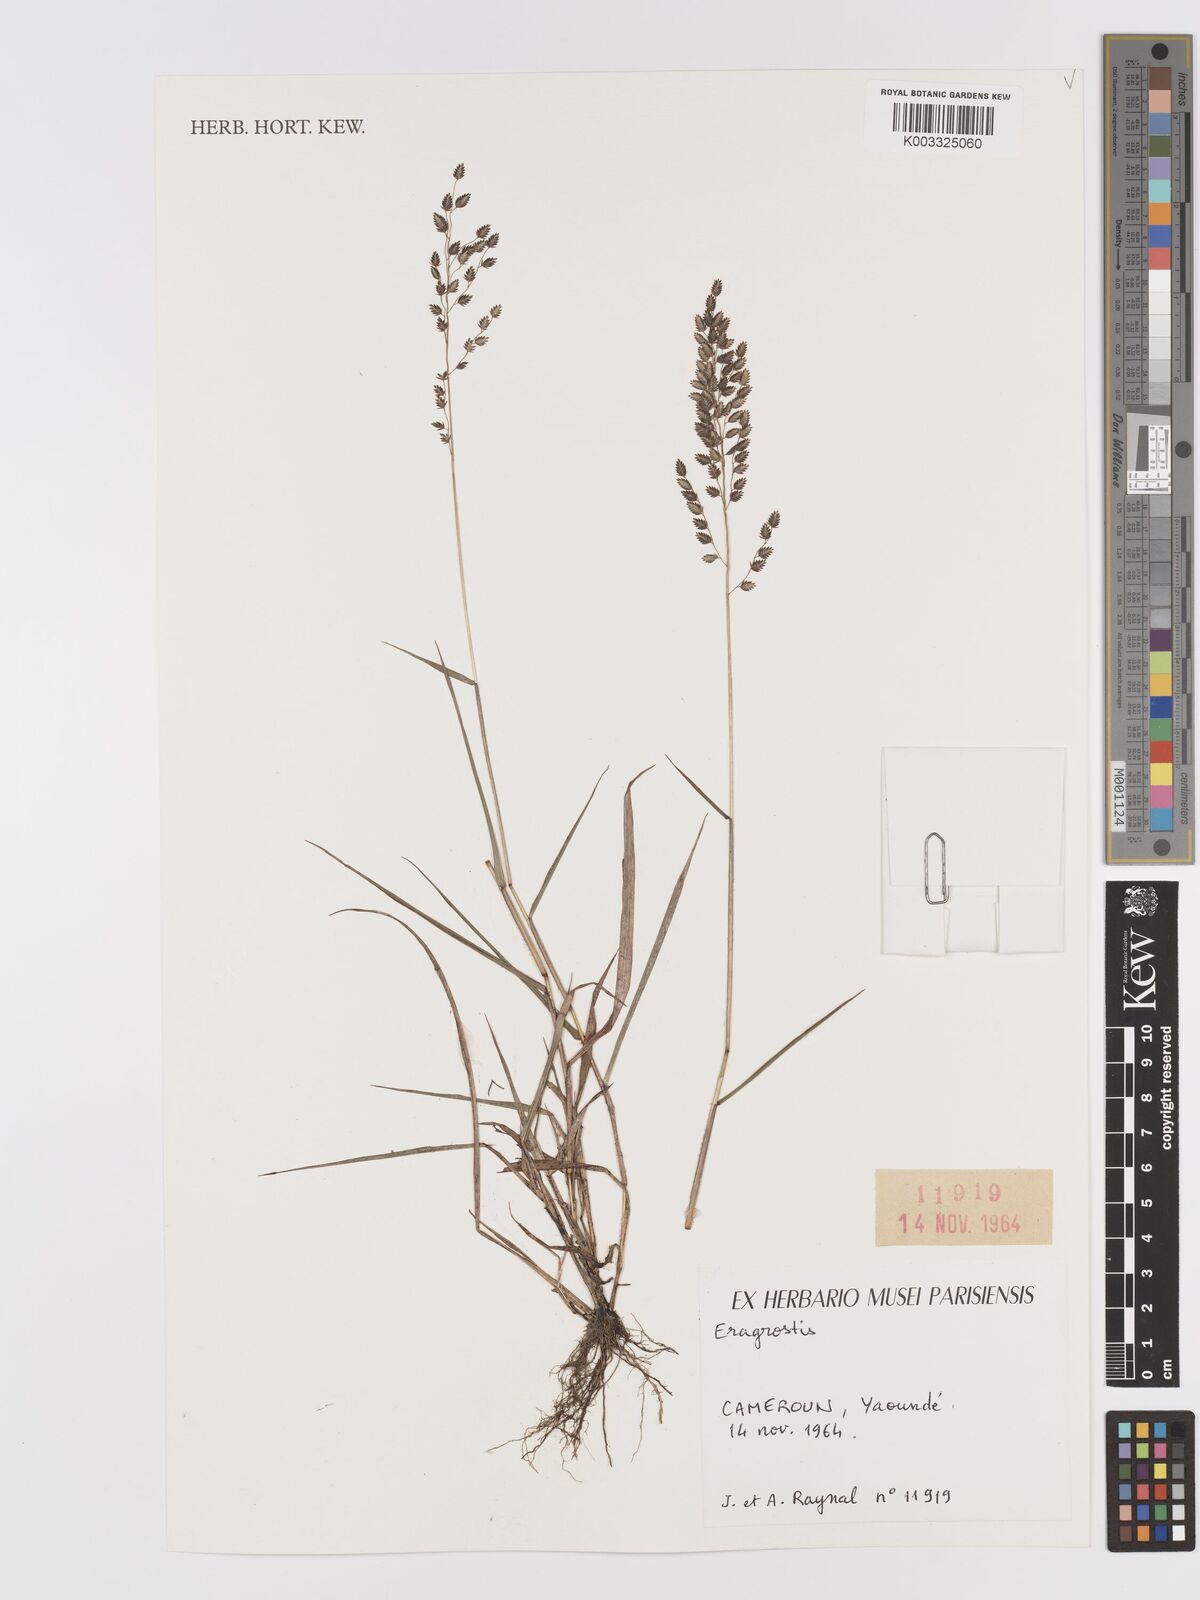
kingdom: Plantae
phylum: Tracheophyta
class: Liliopsida
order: Poales
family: Poaceae
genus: Eragrostis
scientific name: Eragrostis
